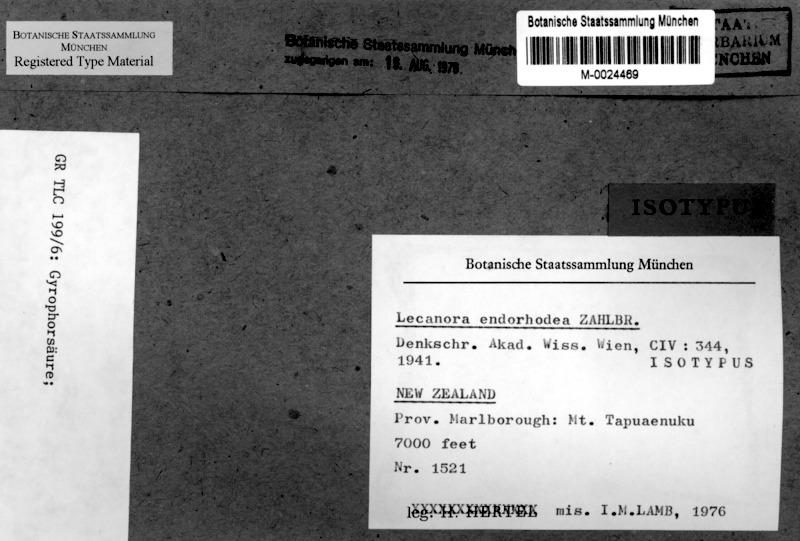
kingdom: Fungi
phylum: Ascomycota
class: Lecanoromycetes
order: Lecanorales
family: Lecanoraceae
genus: Lecanora
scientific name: Lecanora
